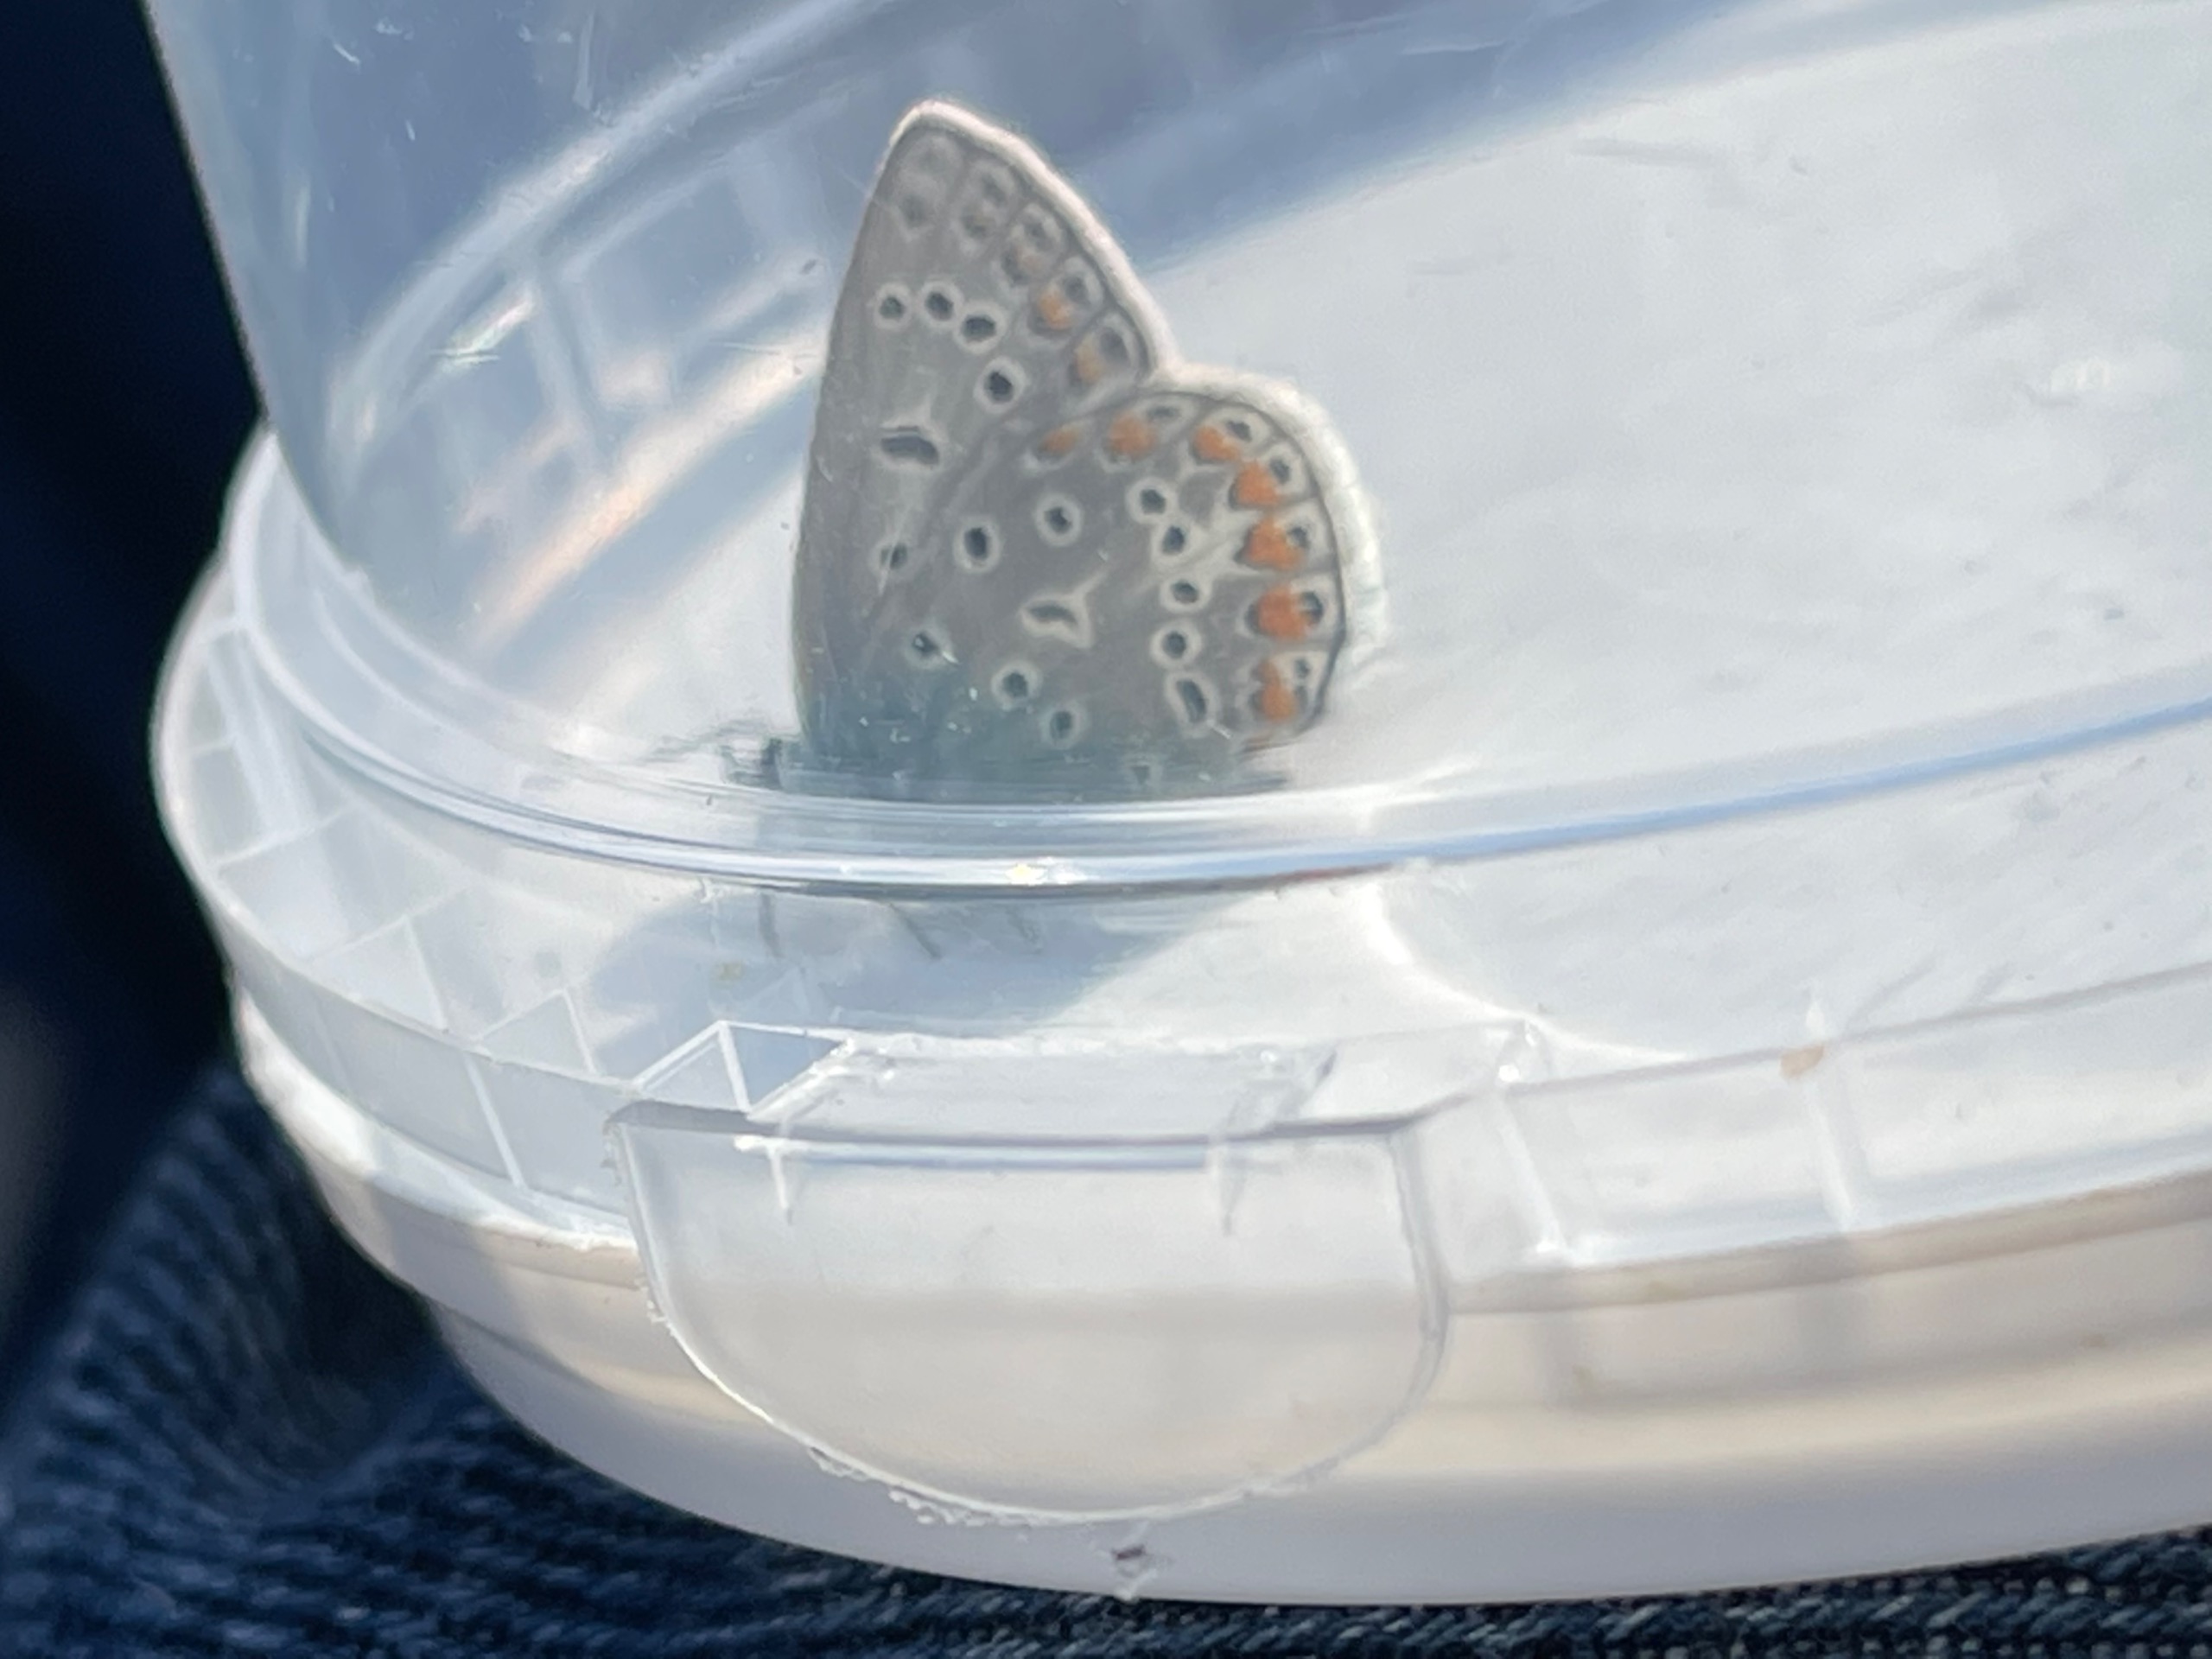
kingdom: Animalia
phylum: Arthropoda
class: Insecta
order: Lepidoptera
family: Lycaenidae
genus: Polyommatus
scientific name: Polyommatus icarus
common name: Almindelig blåfugl
